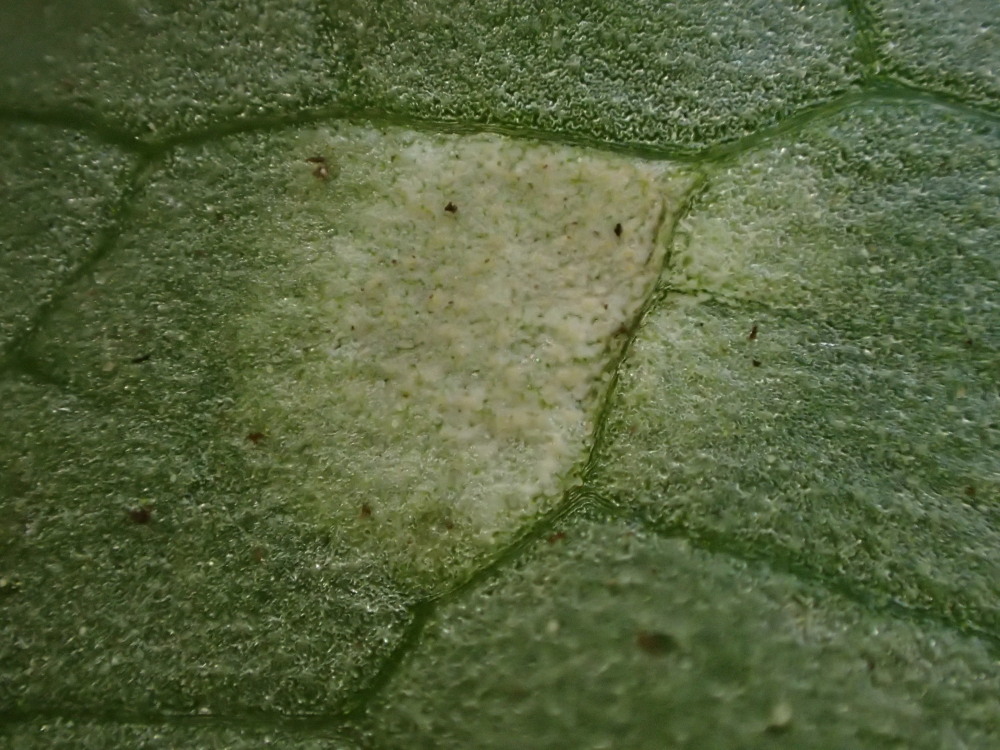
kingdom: Fungi
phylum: Basidiomycota
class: Exobasidiomycetes
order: Entylomatales
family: Entylomataceae
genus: Entyloma
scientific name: Entyloma ficariae
